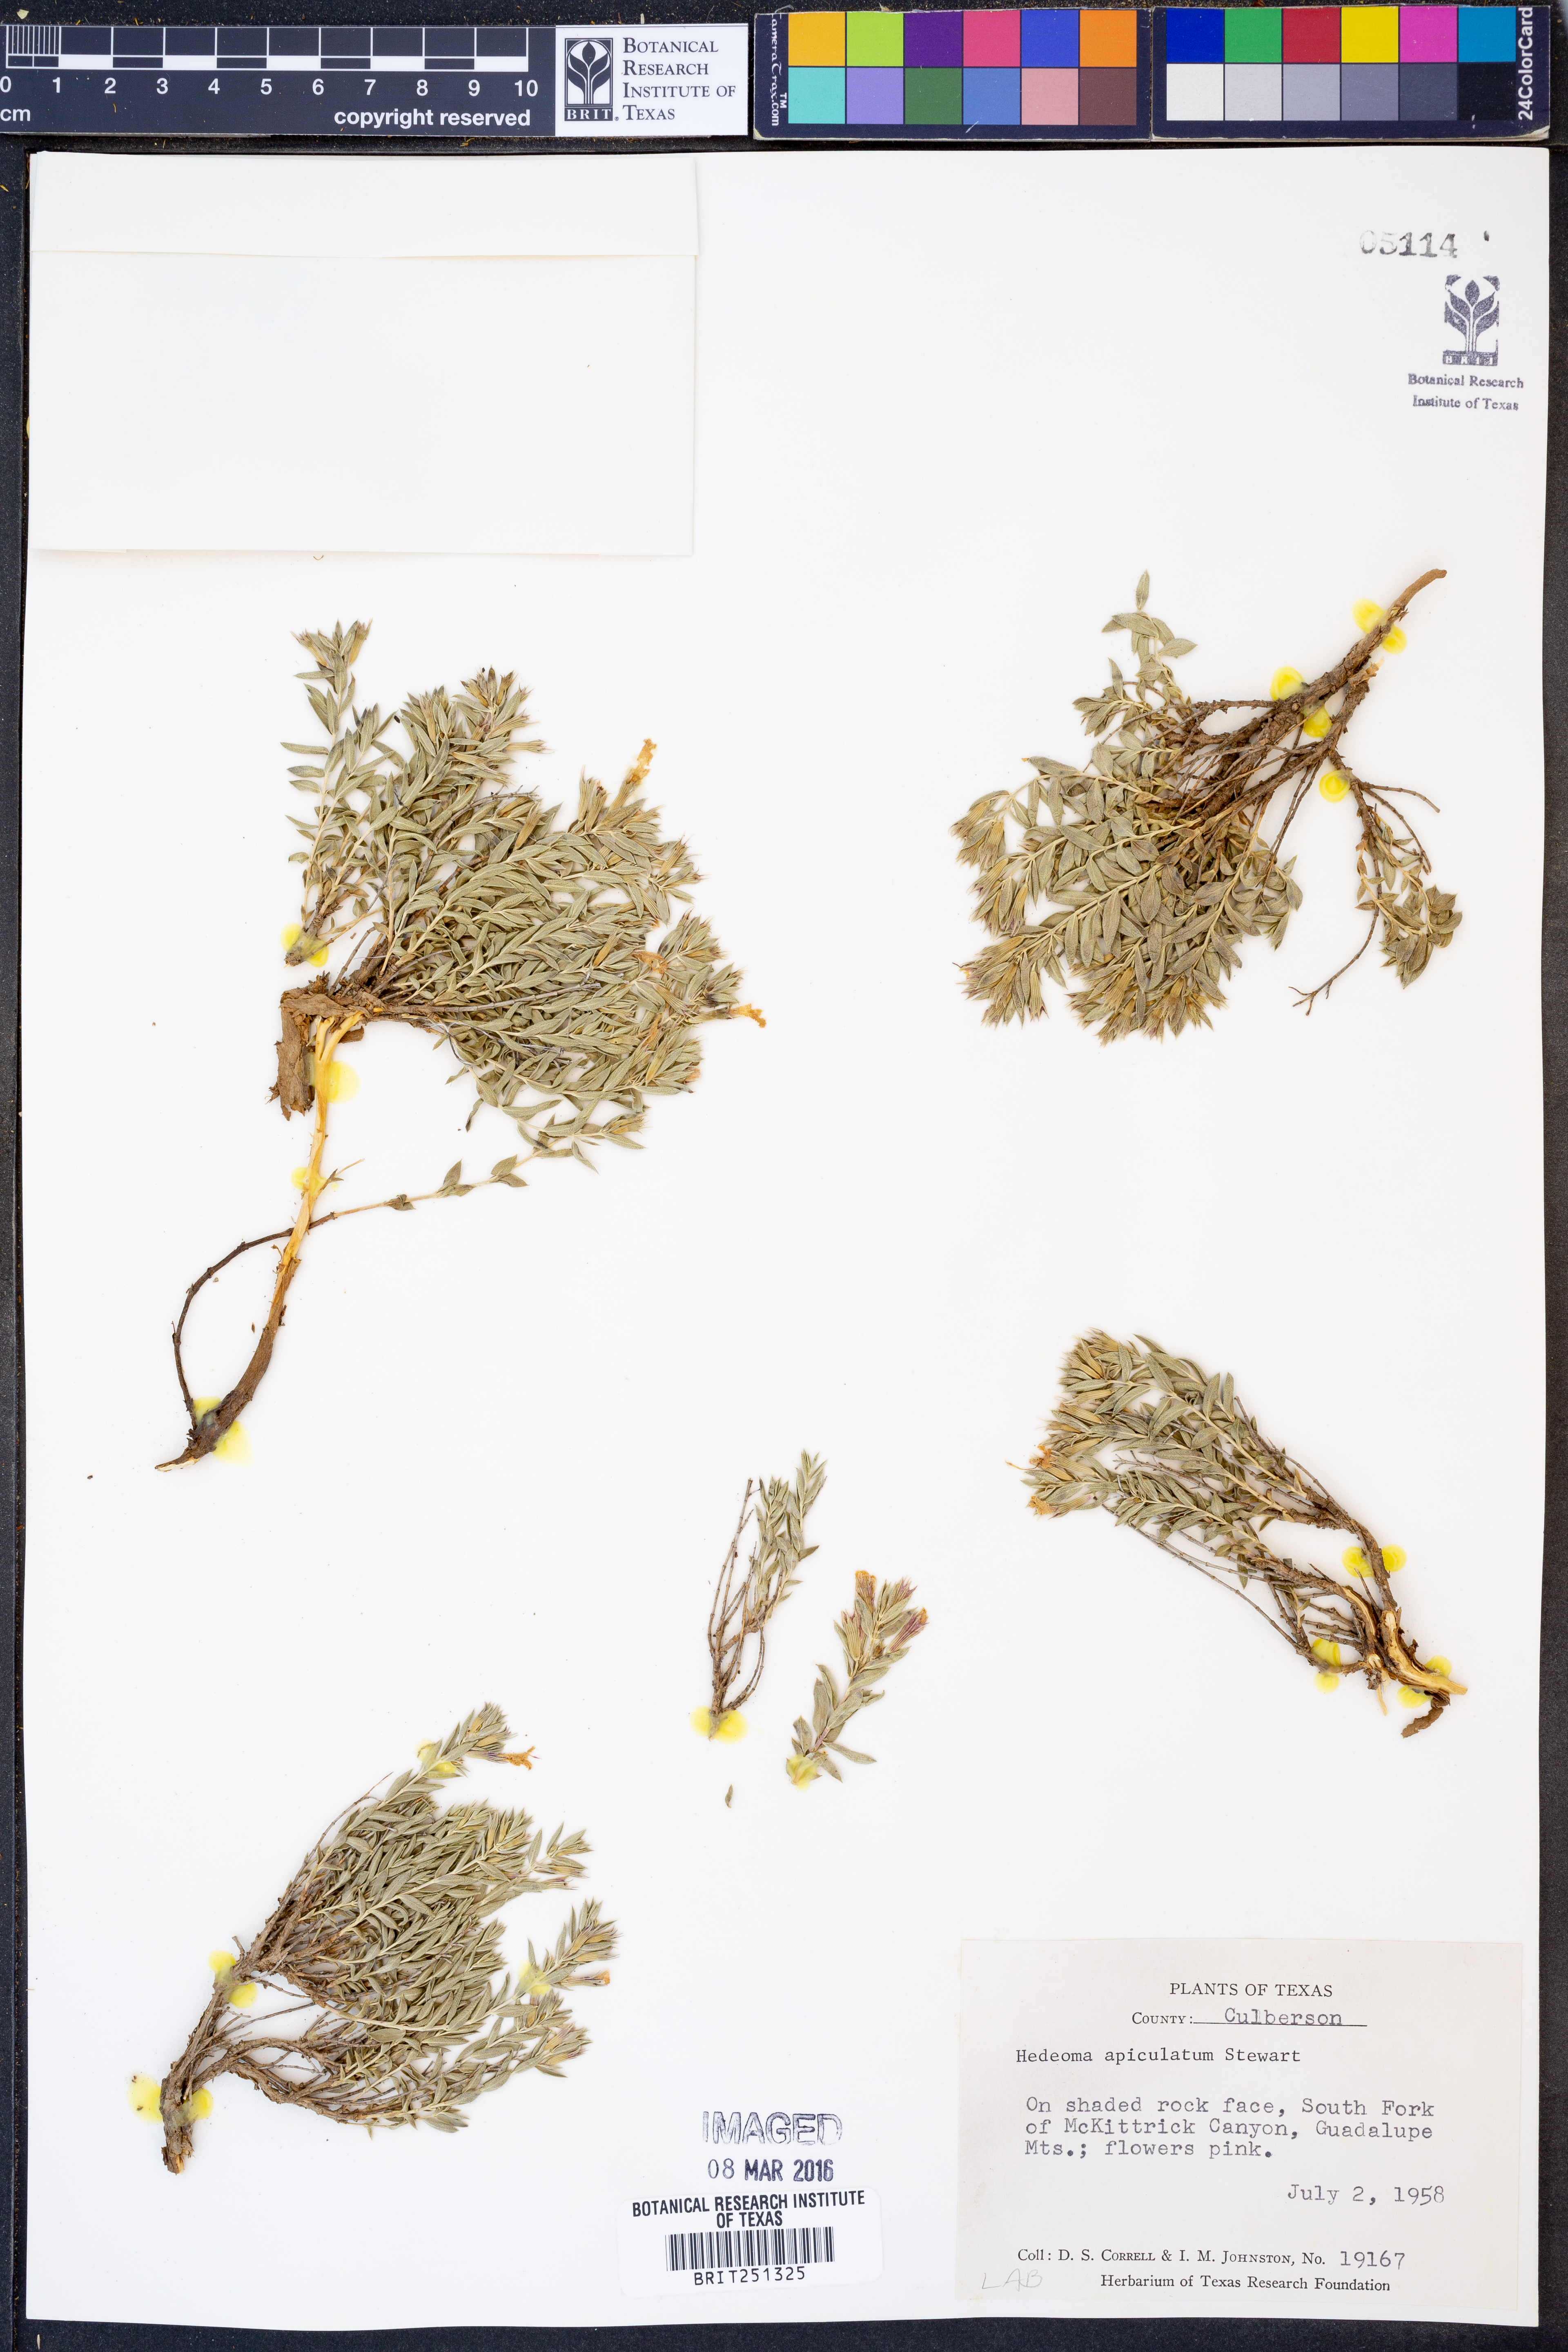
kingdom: Plantae
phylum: Tracheophyta
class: Magnoliopsida
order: Lamiales
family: Lamiaceae
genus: Hedeoma
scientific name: Hedeoma apiculata
